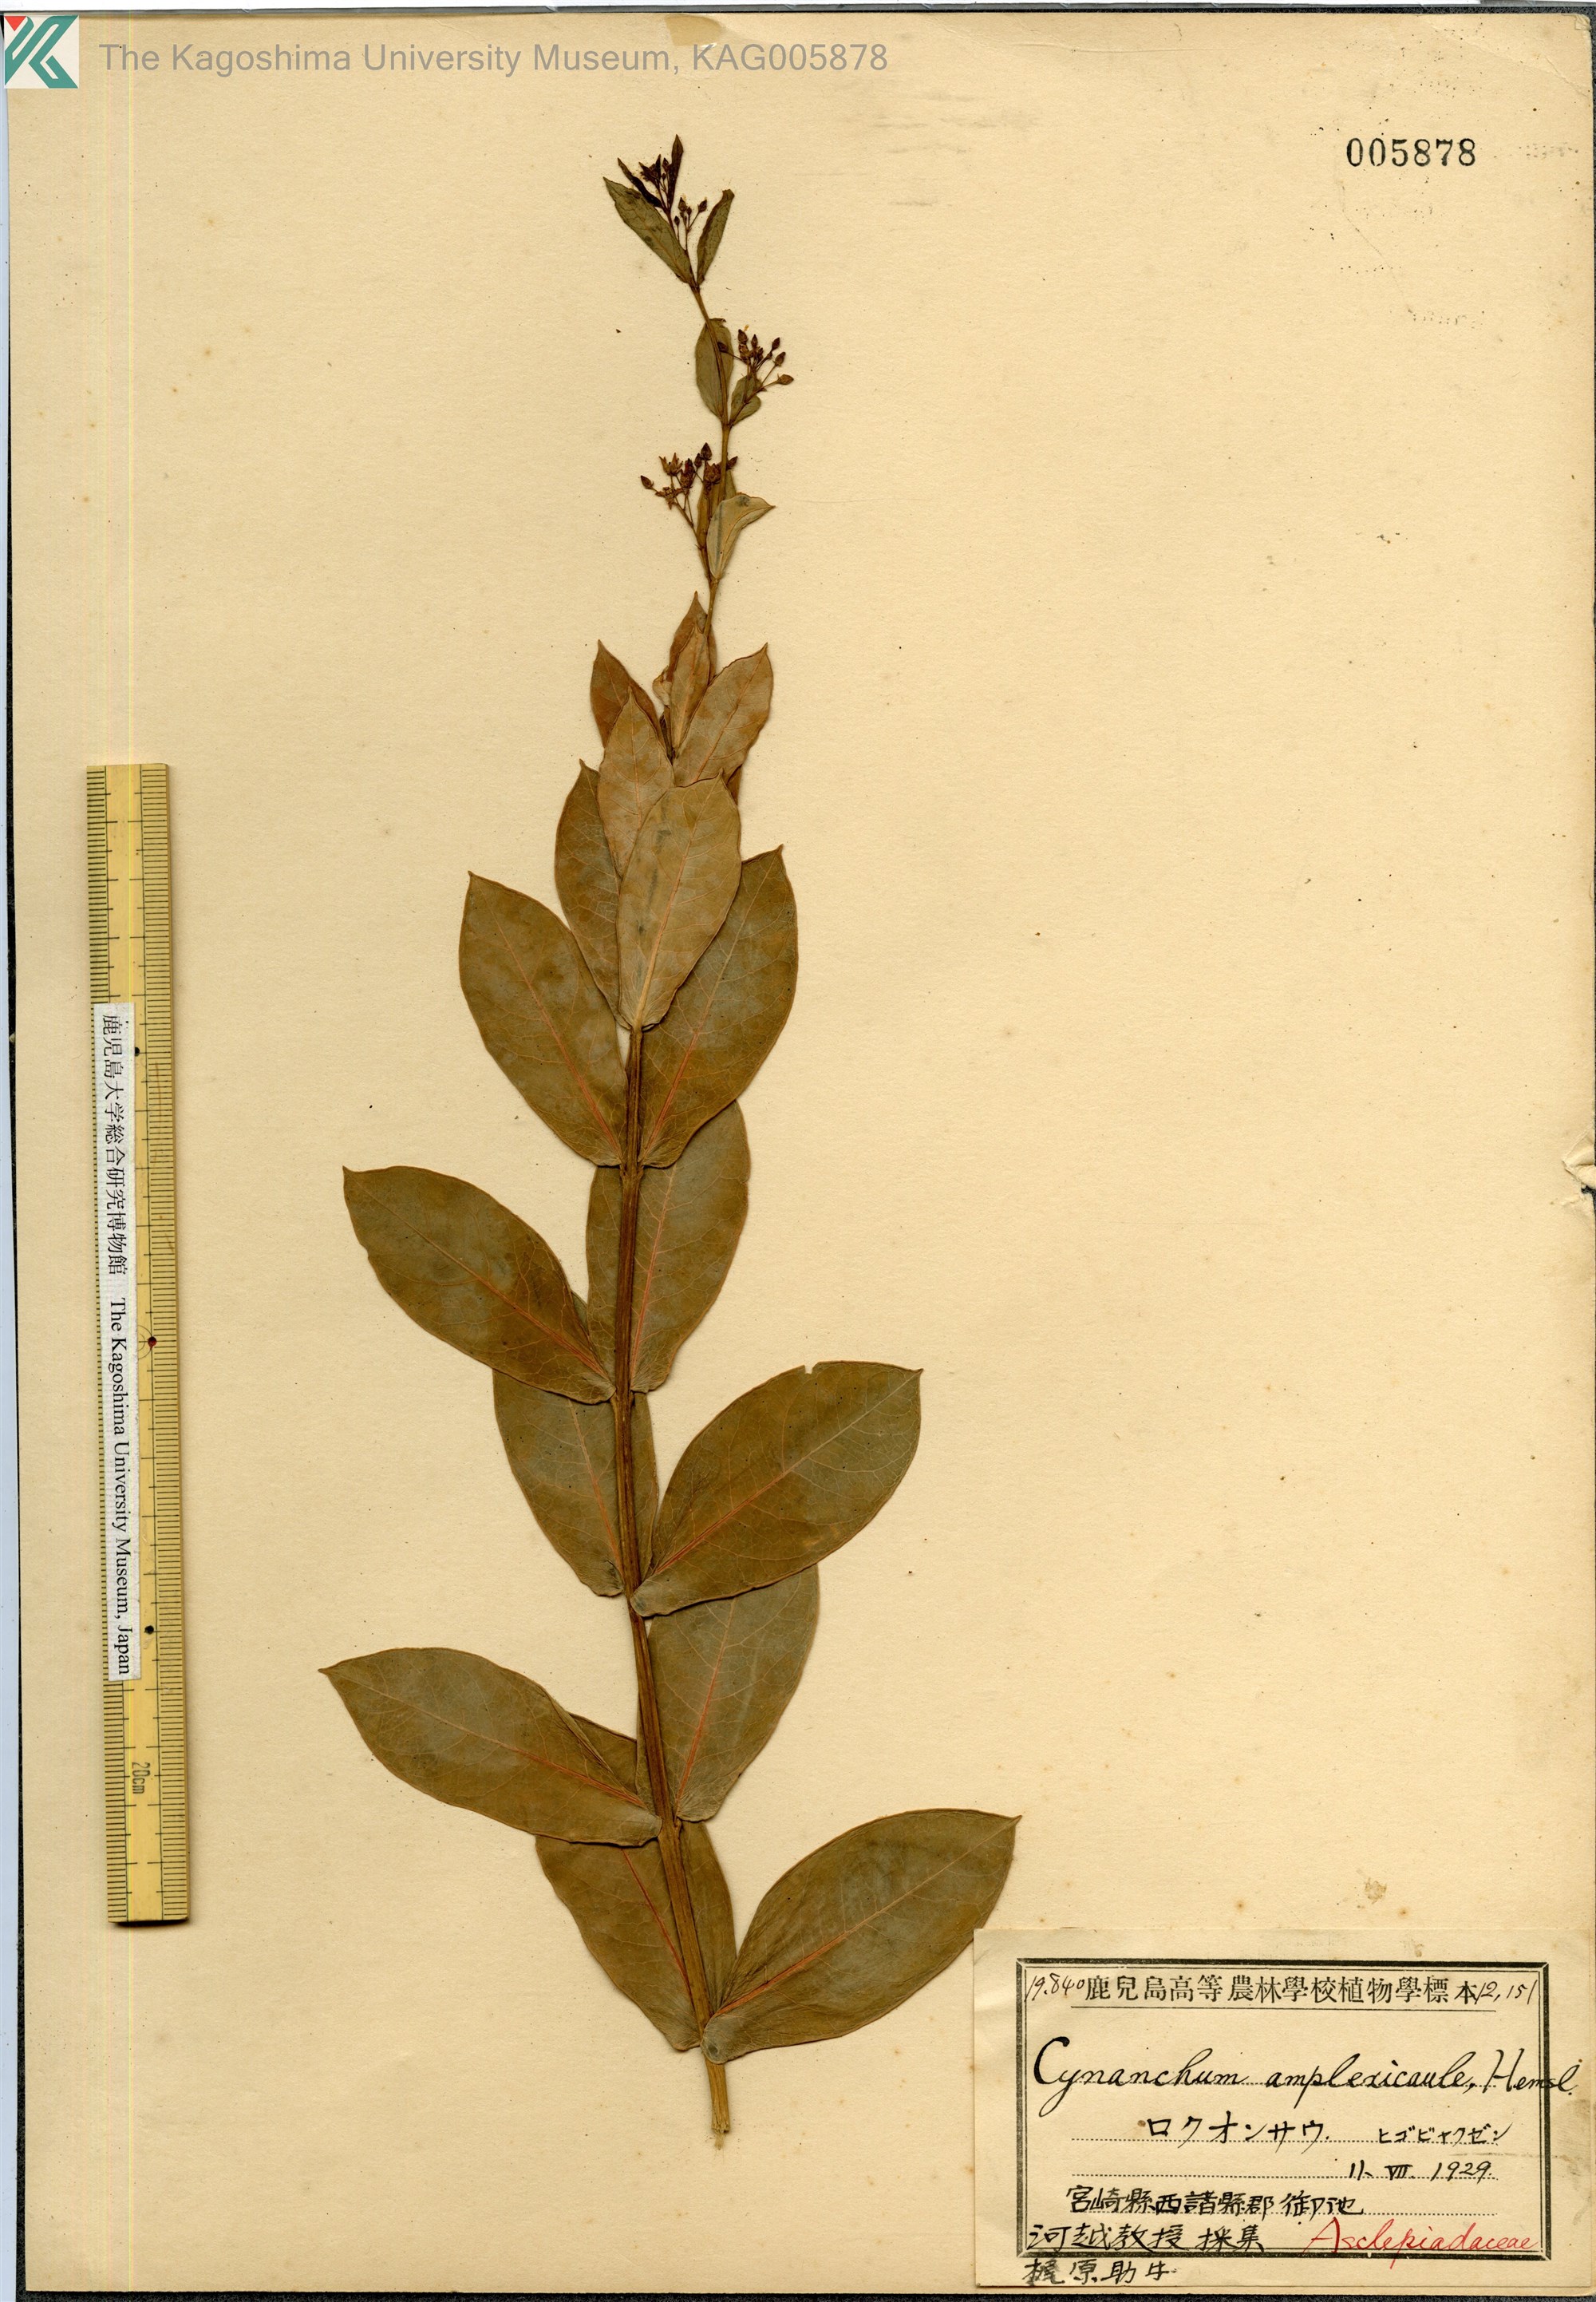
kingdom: Plantae
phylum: Tracheophyta
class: Magnoliopsida
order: Gentianales
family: Apocynaceae
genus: Vincetoxicum
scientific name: Vincetoxicum amplexicaule
